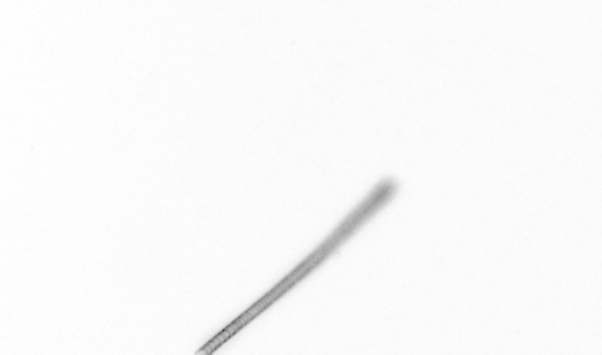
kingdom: Chromista
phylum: Ochrophyta
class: Bacillariophyceae
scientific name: Bacillariophyceae
